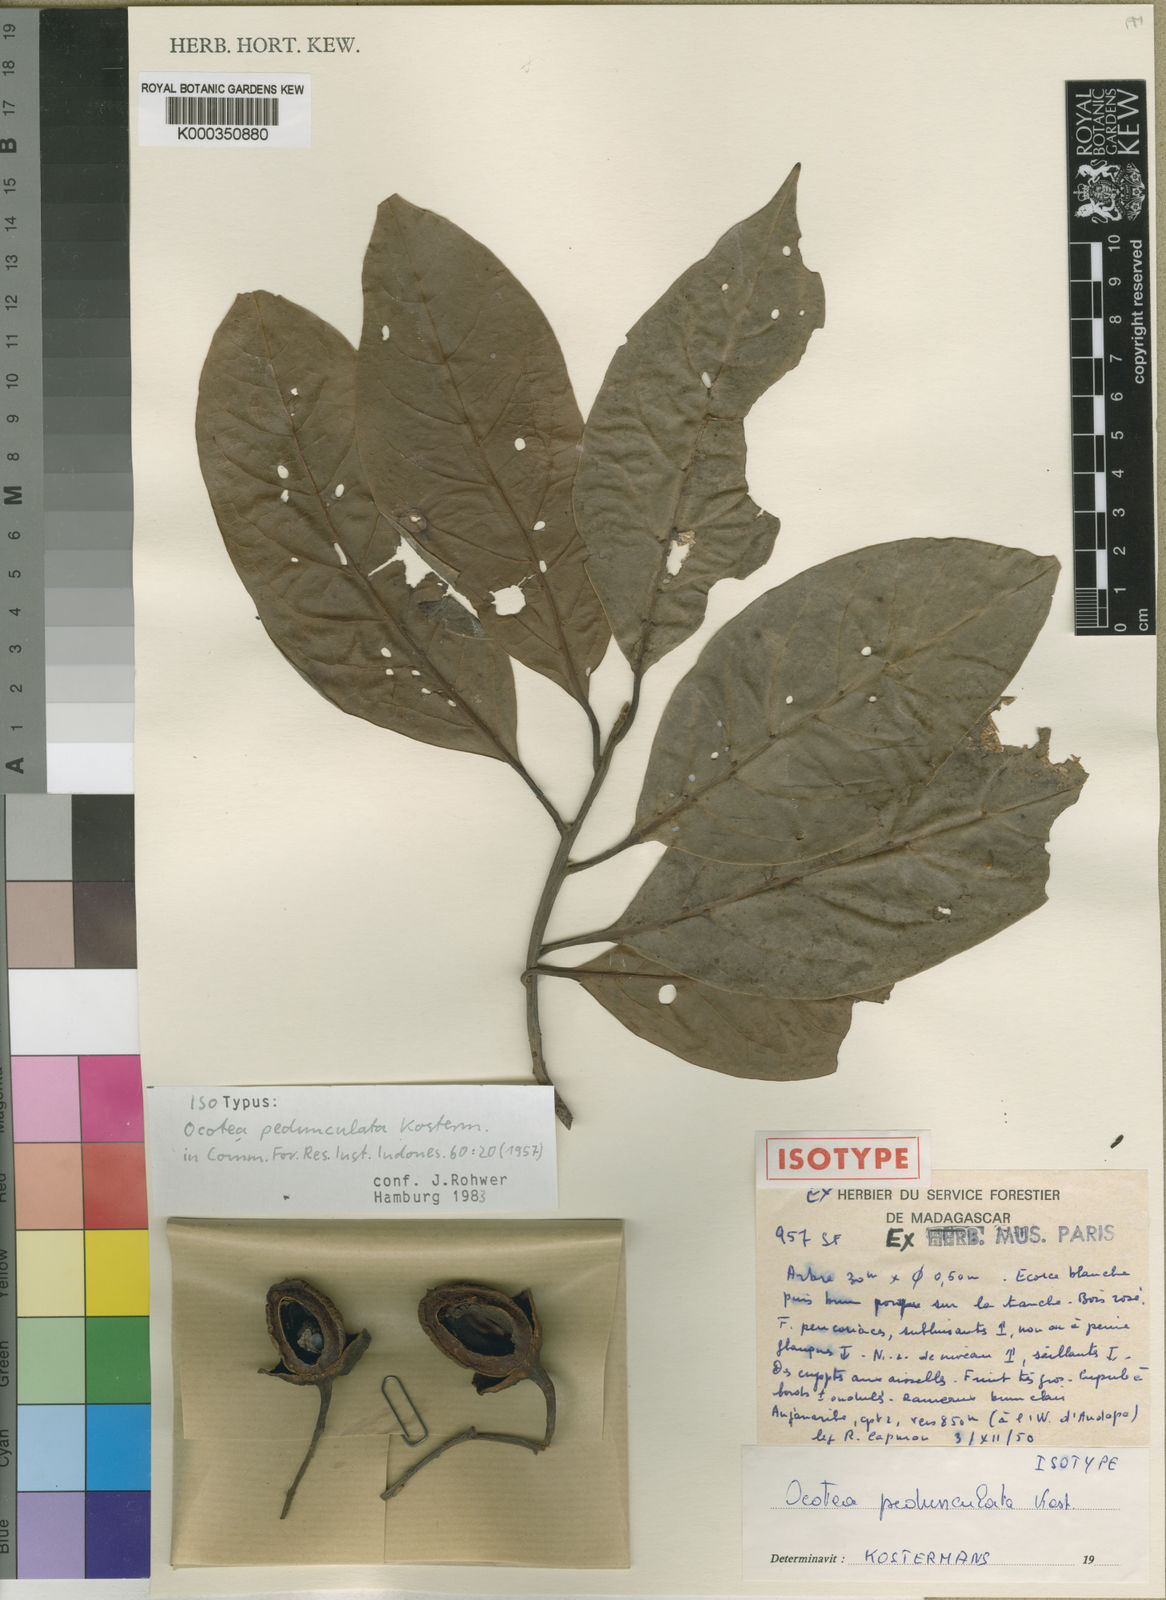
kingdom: Plantae
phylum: Tracheophyta
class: Magnoliopsida
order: Laurales
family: Lauraceae
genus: Ocotea
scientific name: Ocotea humblotii
